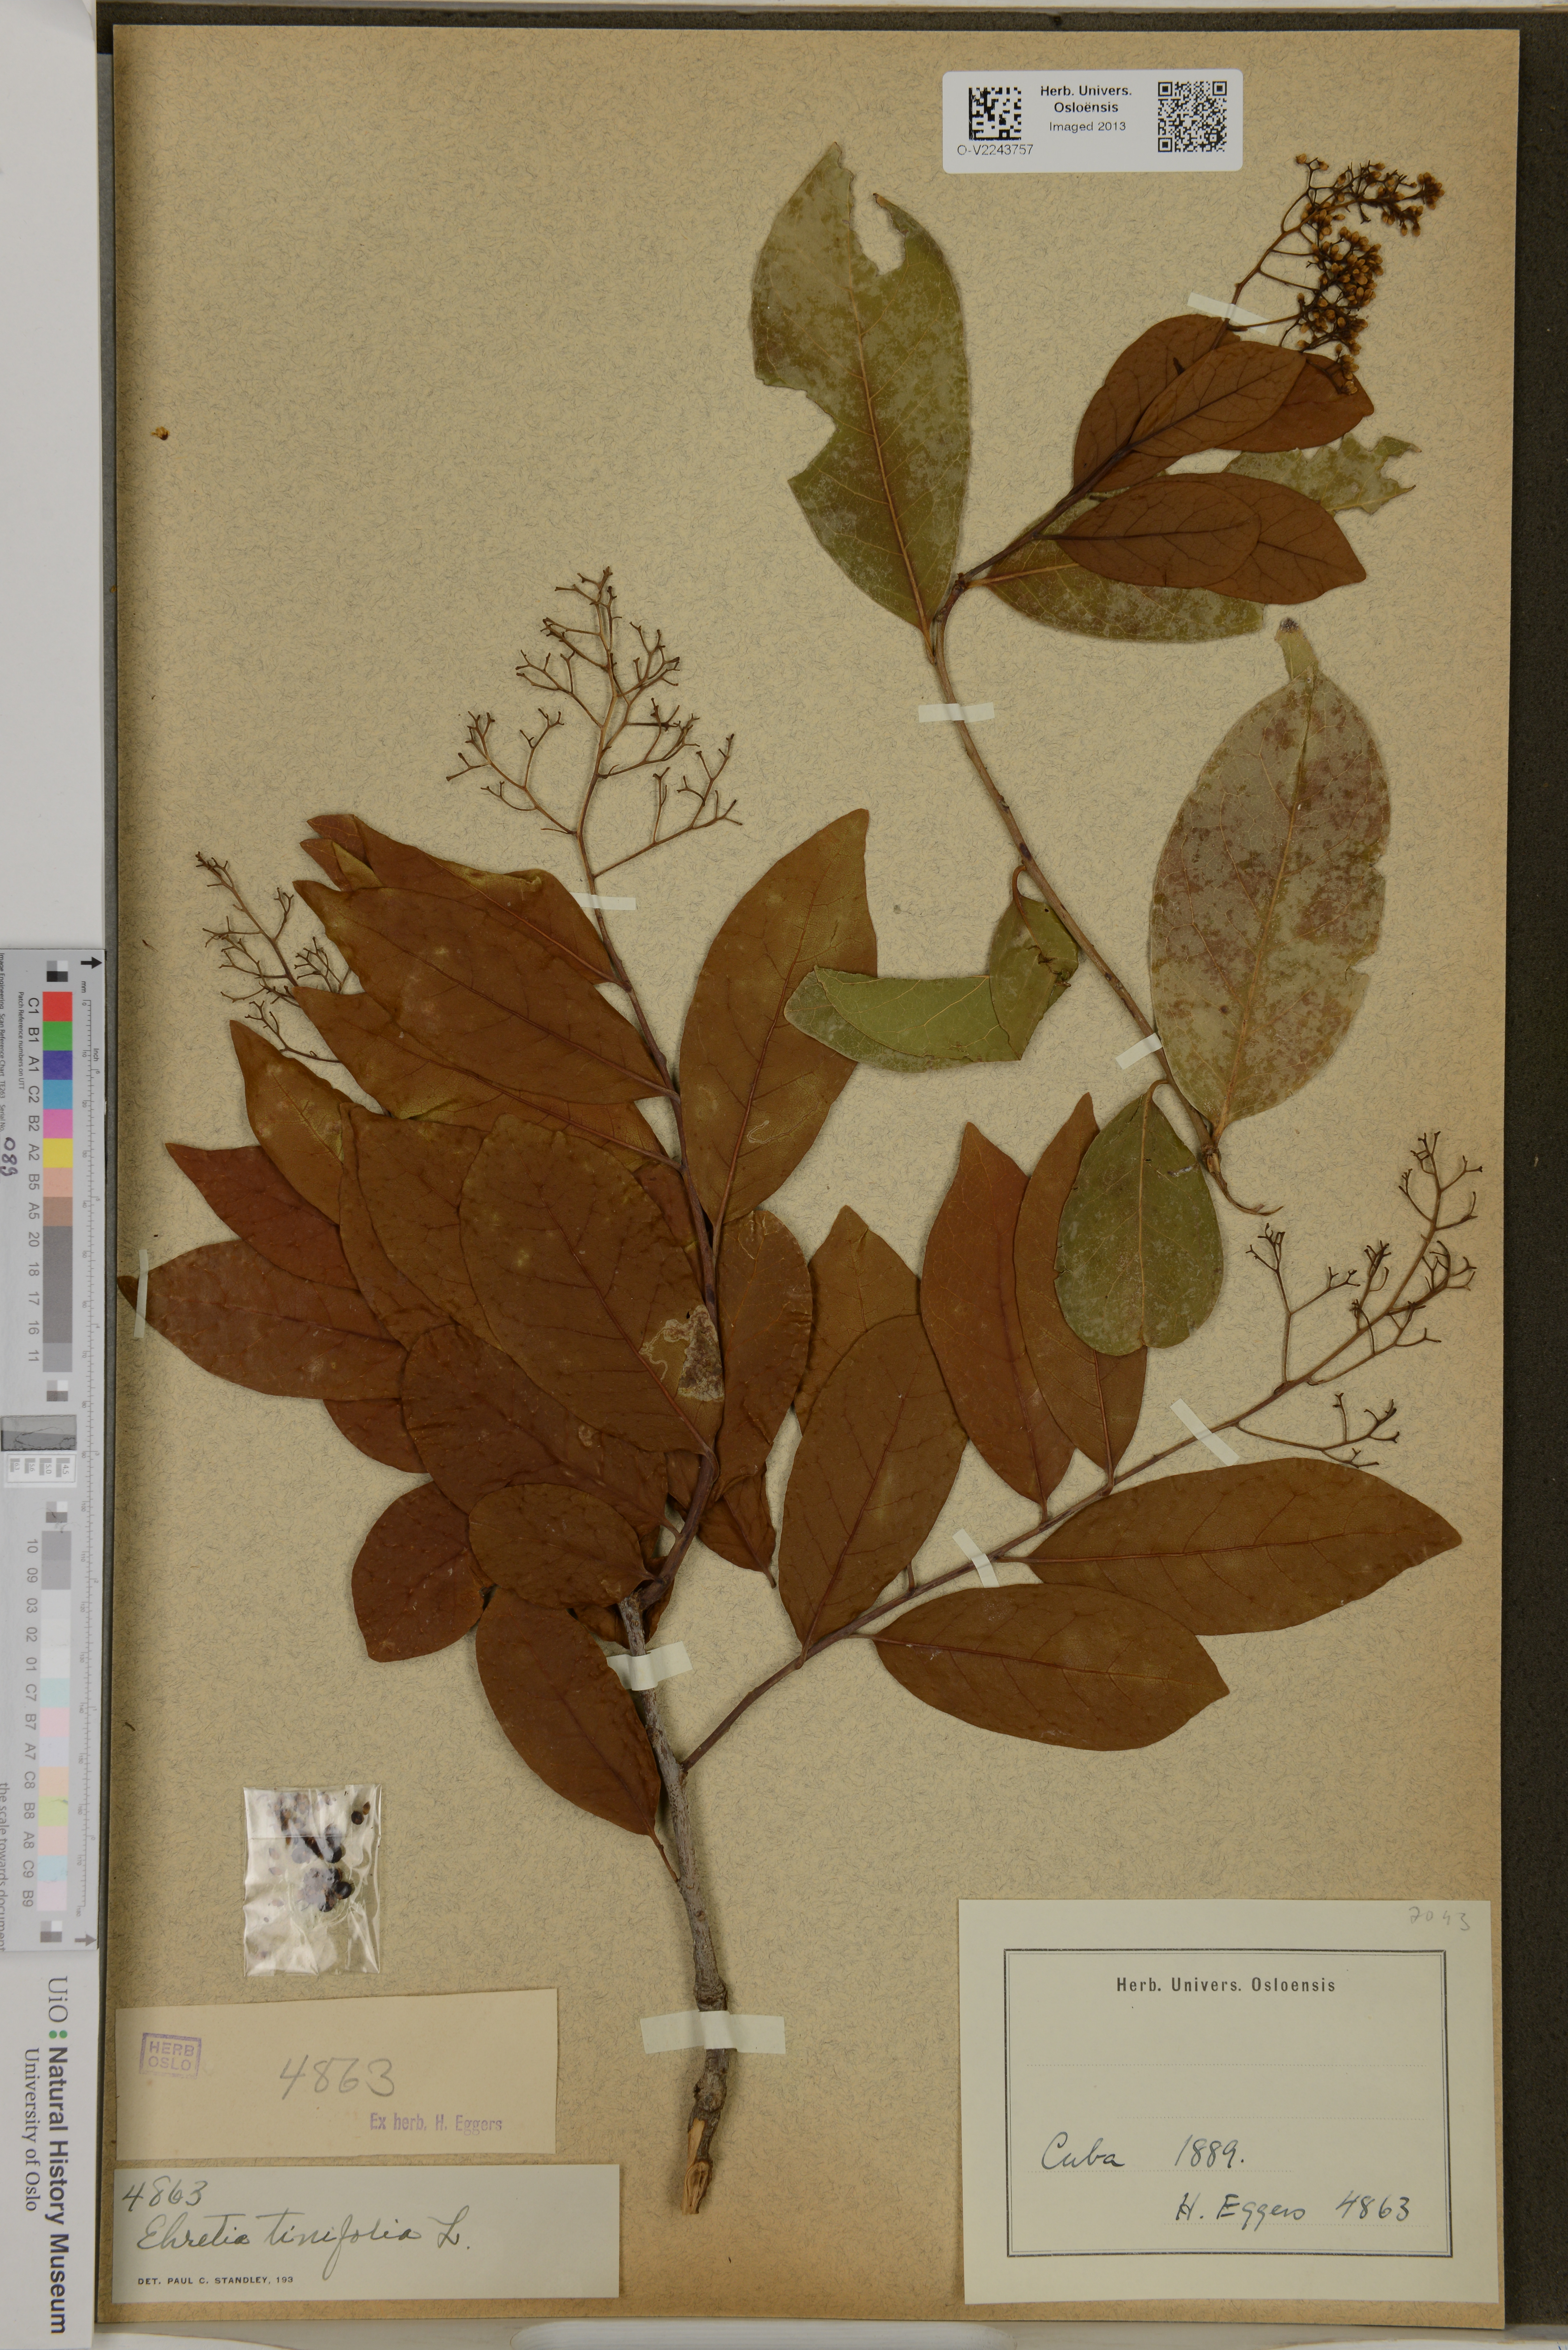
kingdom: Plantae
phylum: Tracheophyta
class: Magnoliopsida
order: Boraginales
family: Ehretiaceae
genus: Ehretia
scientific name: Ehretia tinifolia
